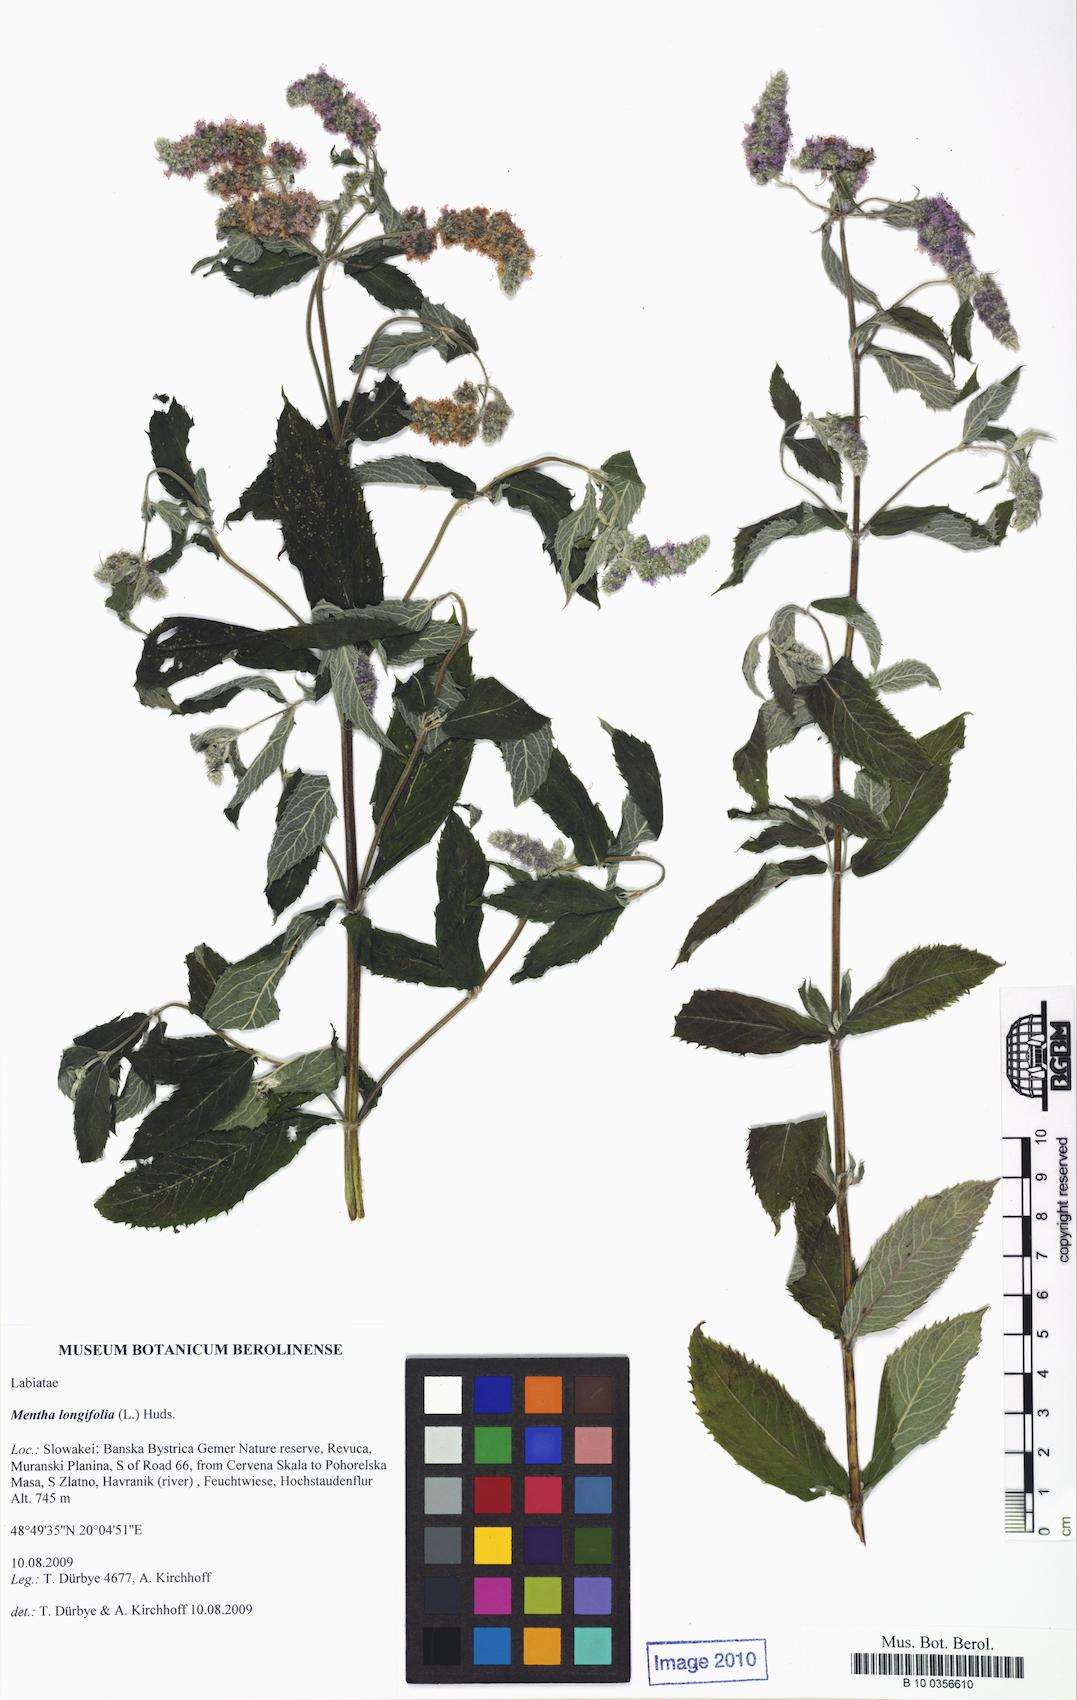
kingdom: Plantae
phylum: Tracheophyta
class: Magnoliopsida
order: Lamiales
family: Lamiaceae
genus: Mentha
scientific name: Mentha longifolia
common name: Horse mint
